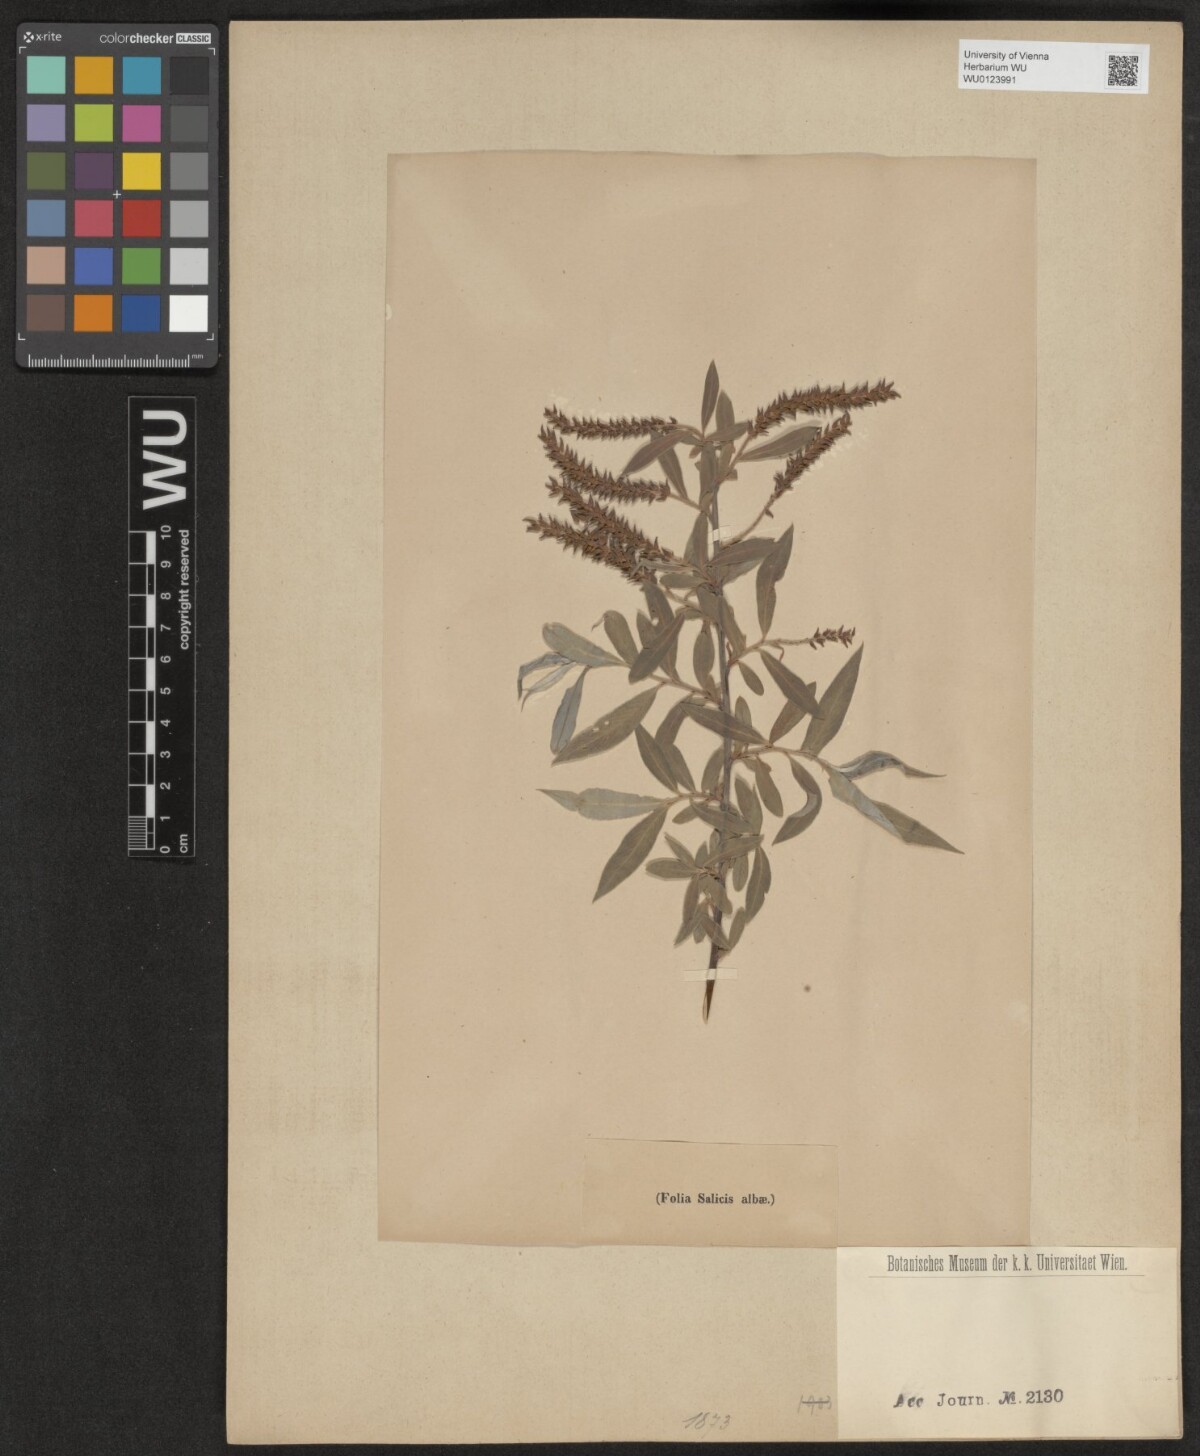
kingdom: Plantae
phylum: Tracheophyta
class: Magnoliopsida
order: Malpighiales
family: Salicaceae
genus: Salix
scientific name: Salix alba
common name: White willow
